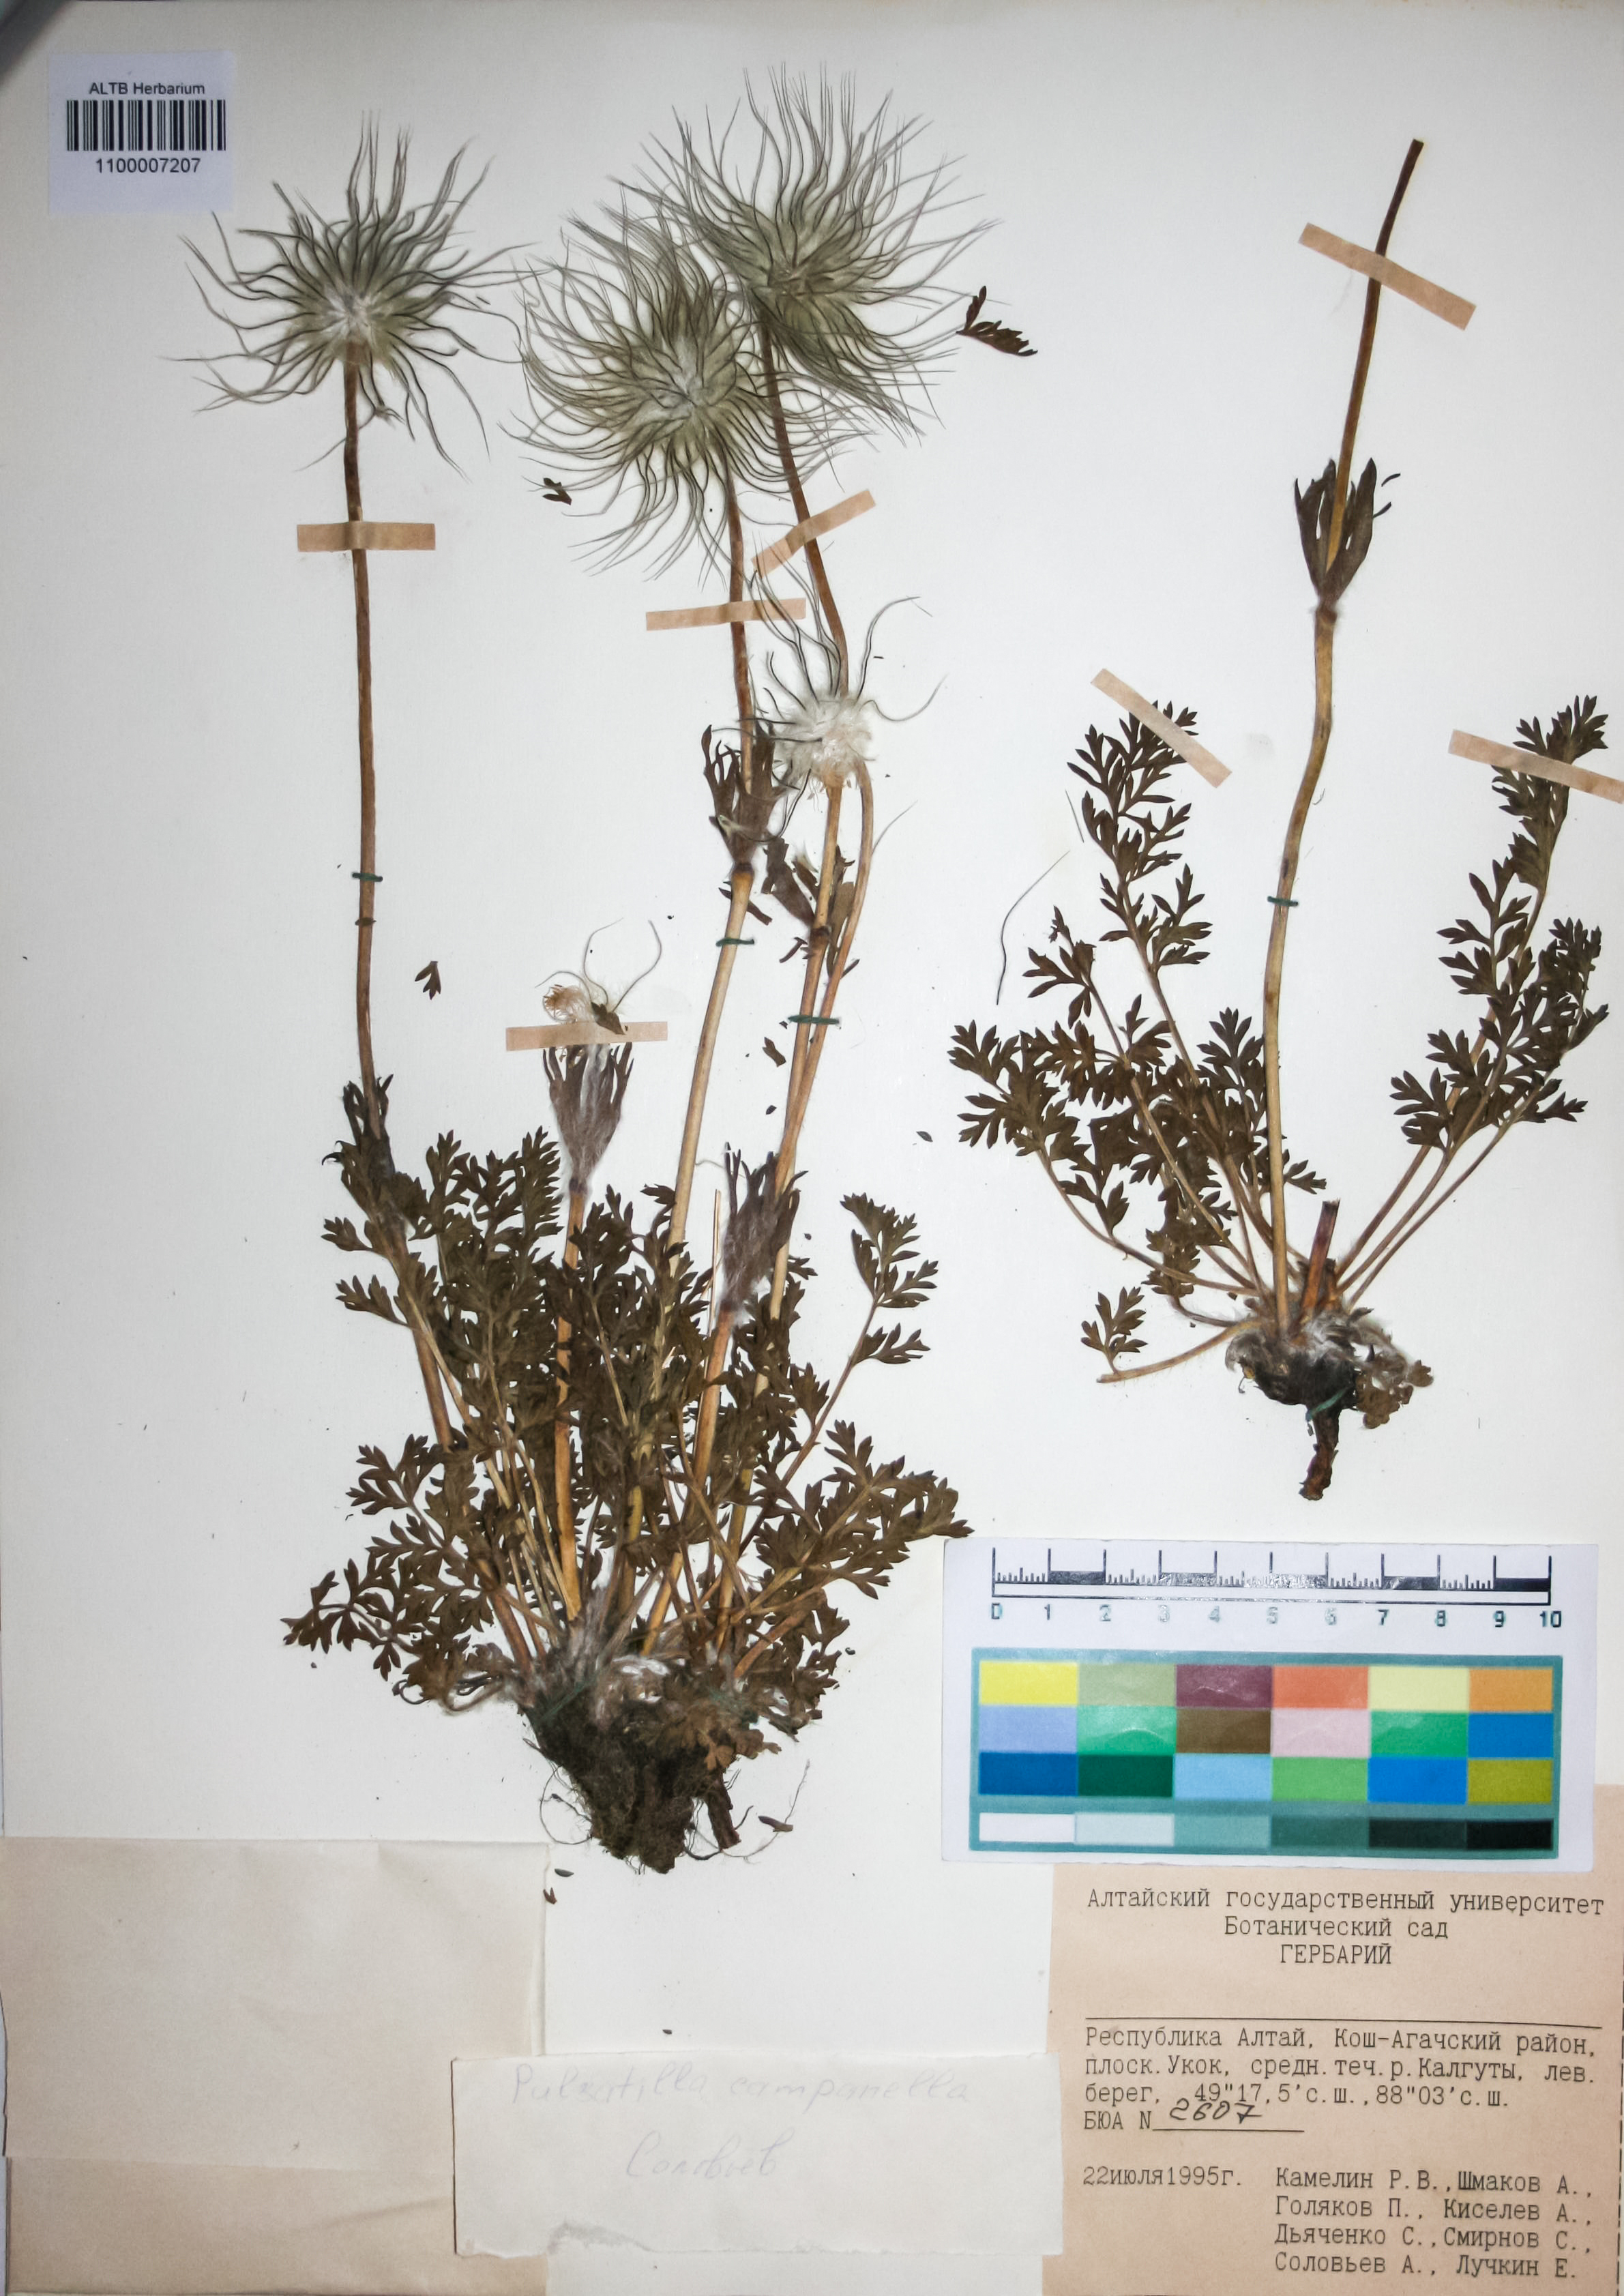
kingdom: Plantae
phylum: Tracheophyta
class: Magnoliopsida
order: Ranunculales
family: Ranunculaceae
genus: Pulsatilla
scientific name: Pulsatilla campanella
